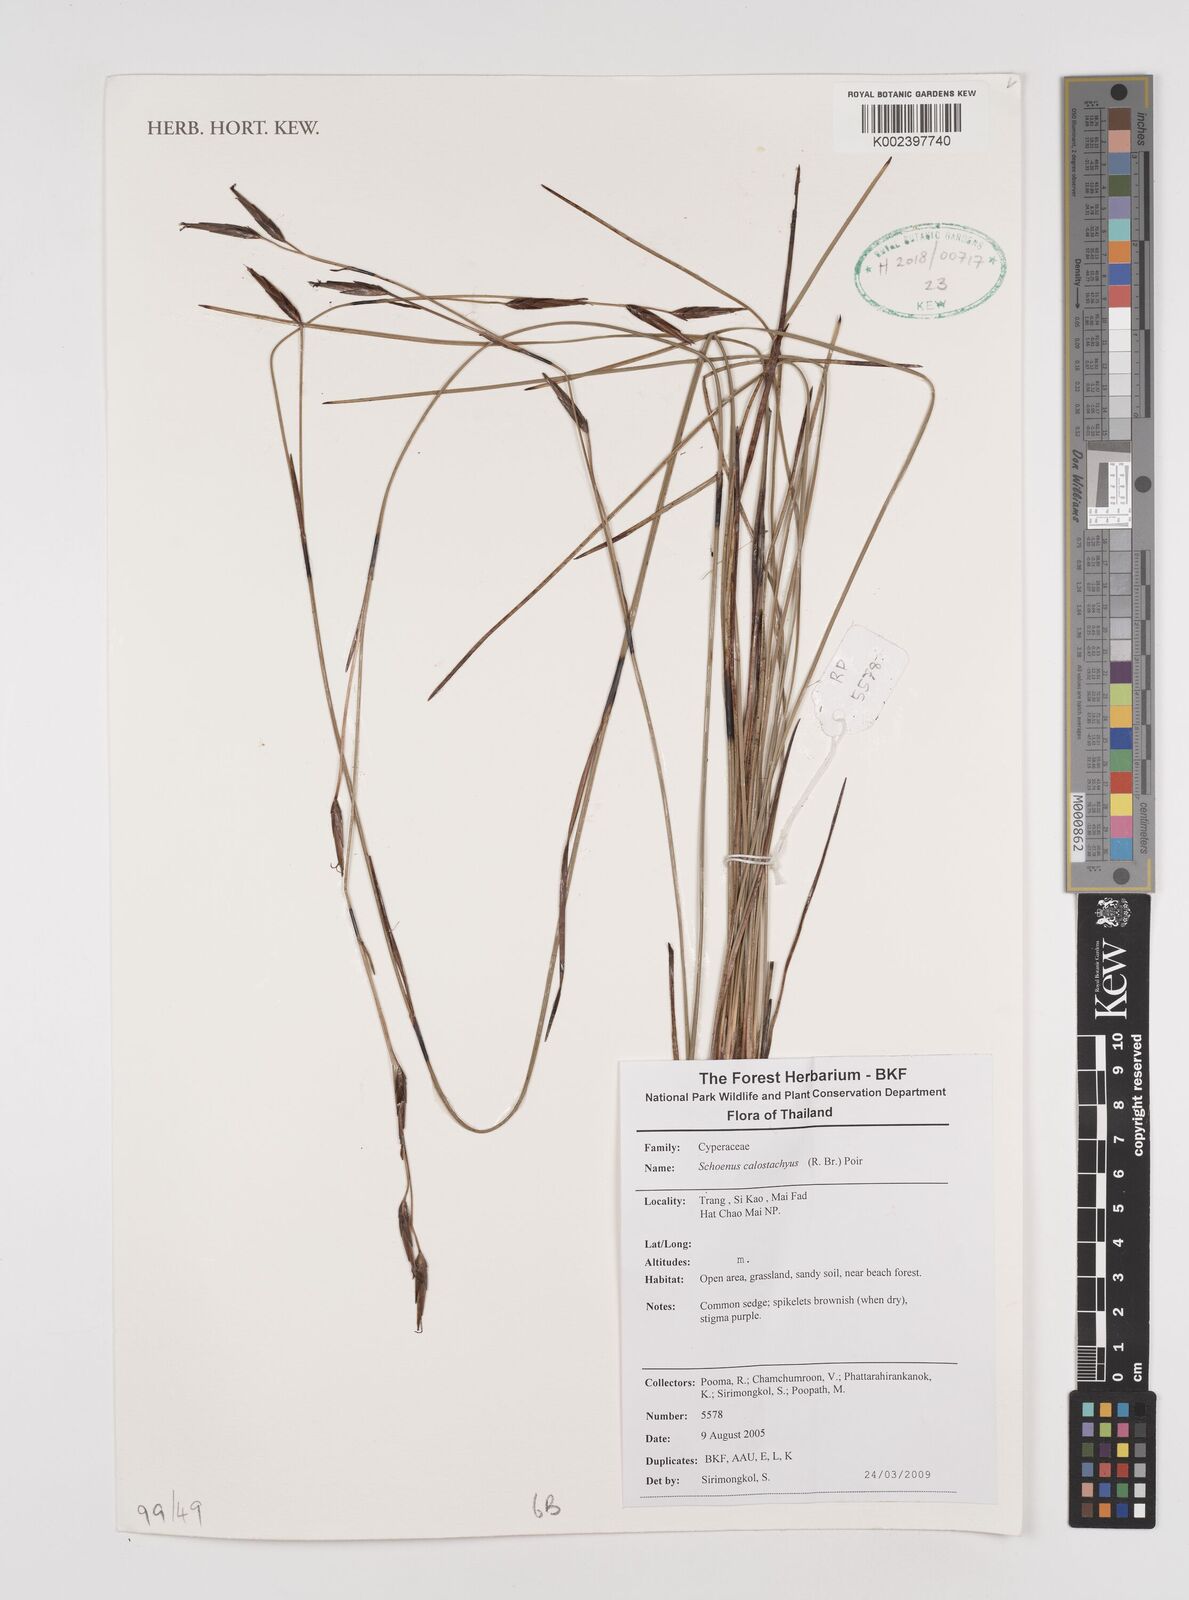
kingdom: Plantae
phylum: Tracheophyta
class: Liliopsida
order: Poales
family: Cyperaceae
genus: Schoenus
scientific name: Schoenus calostachyus
